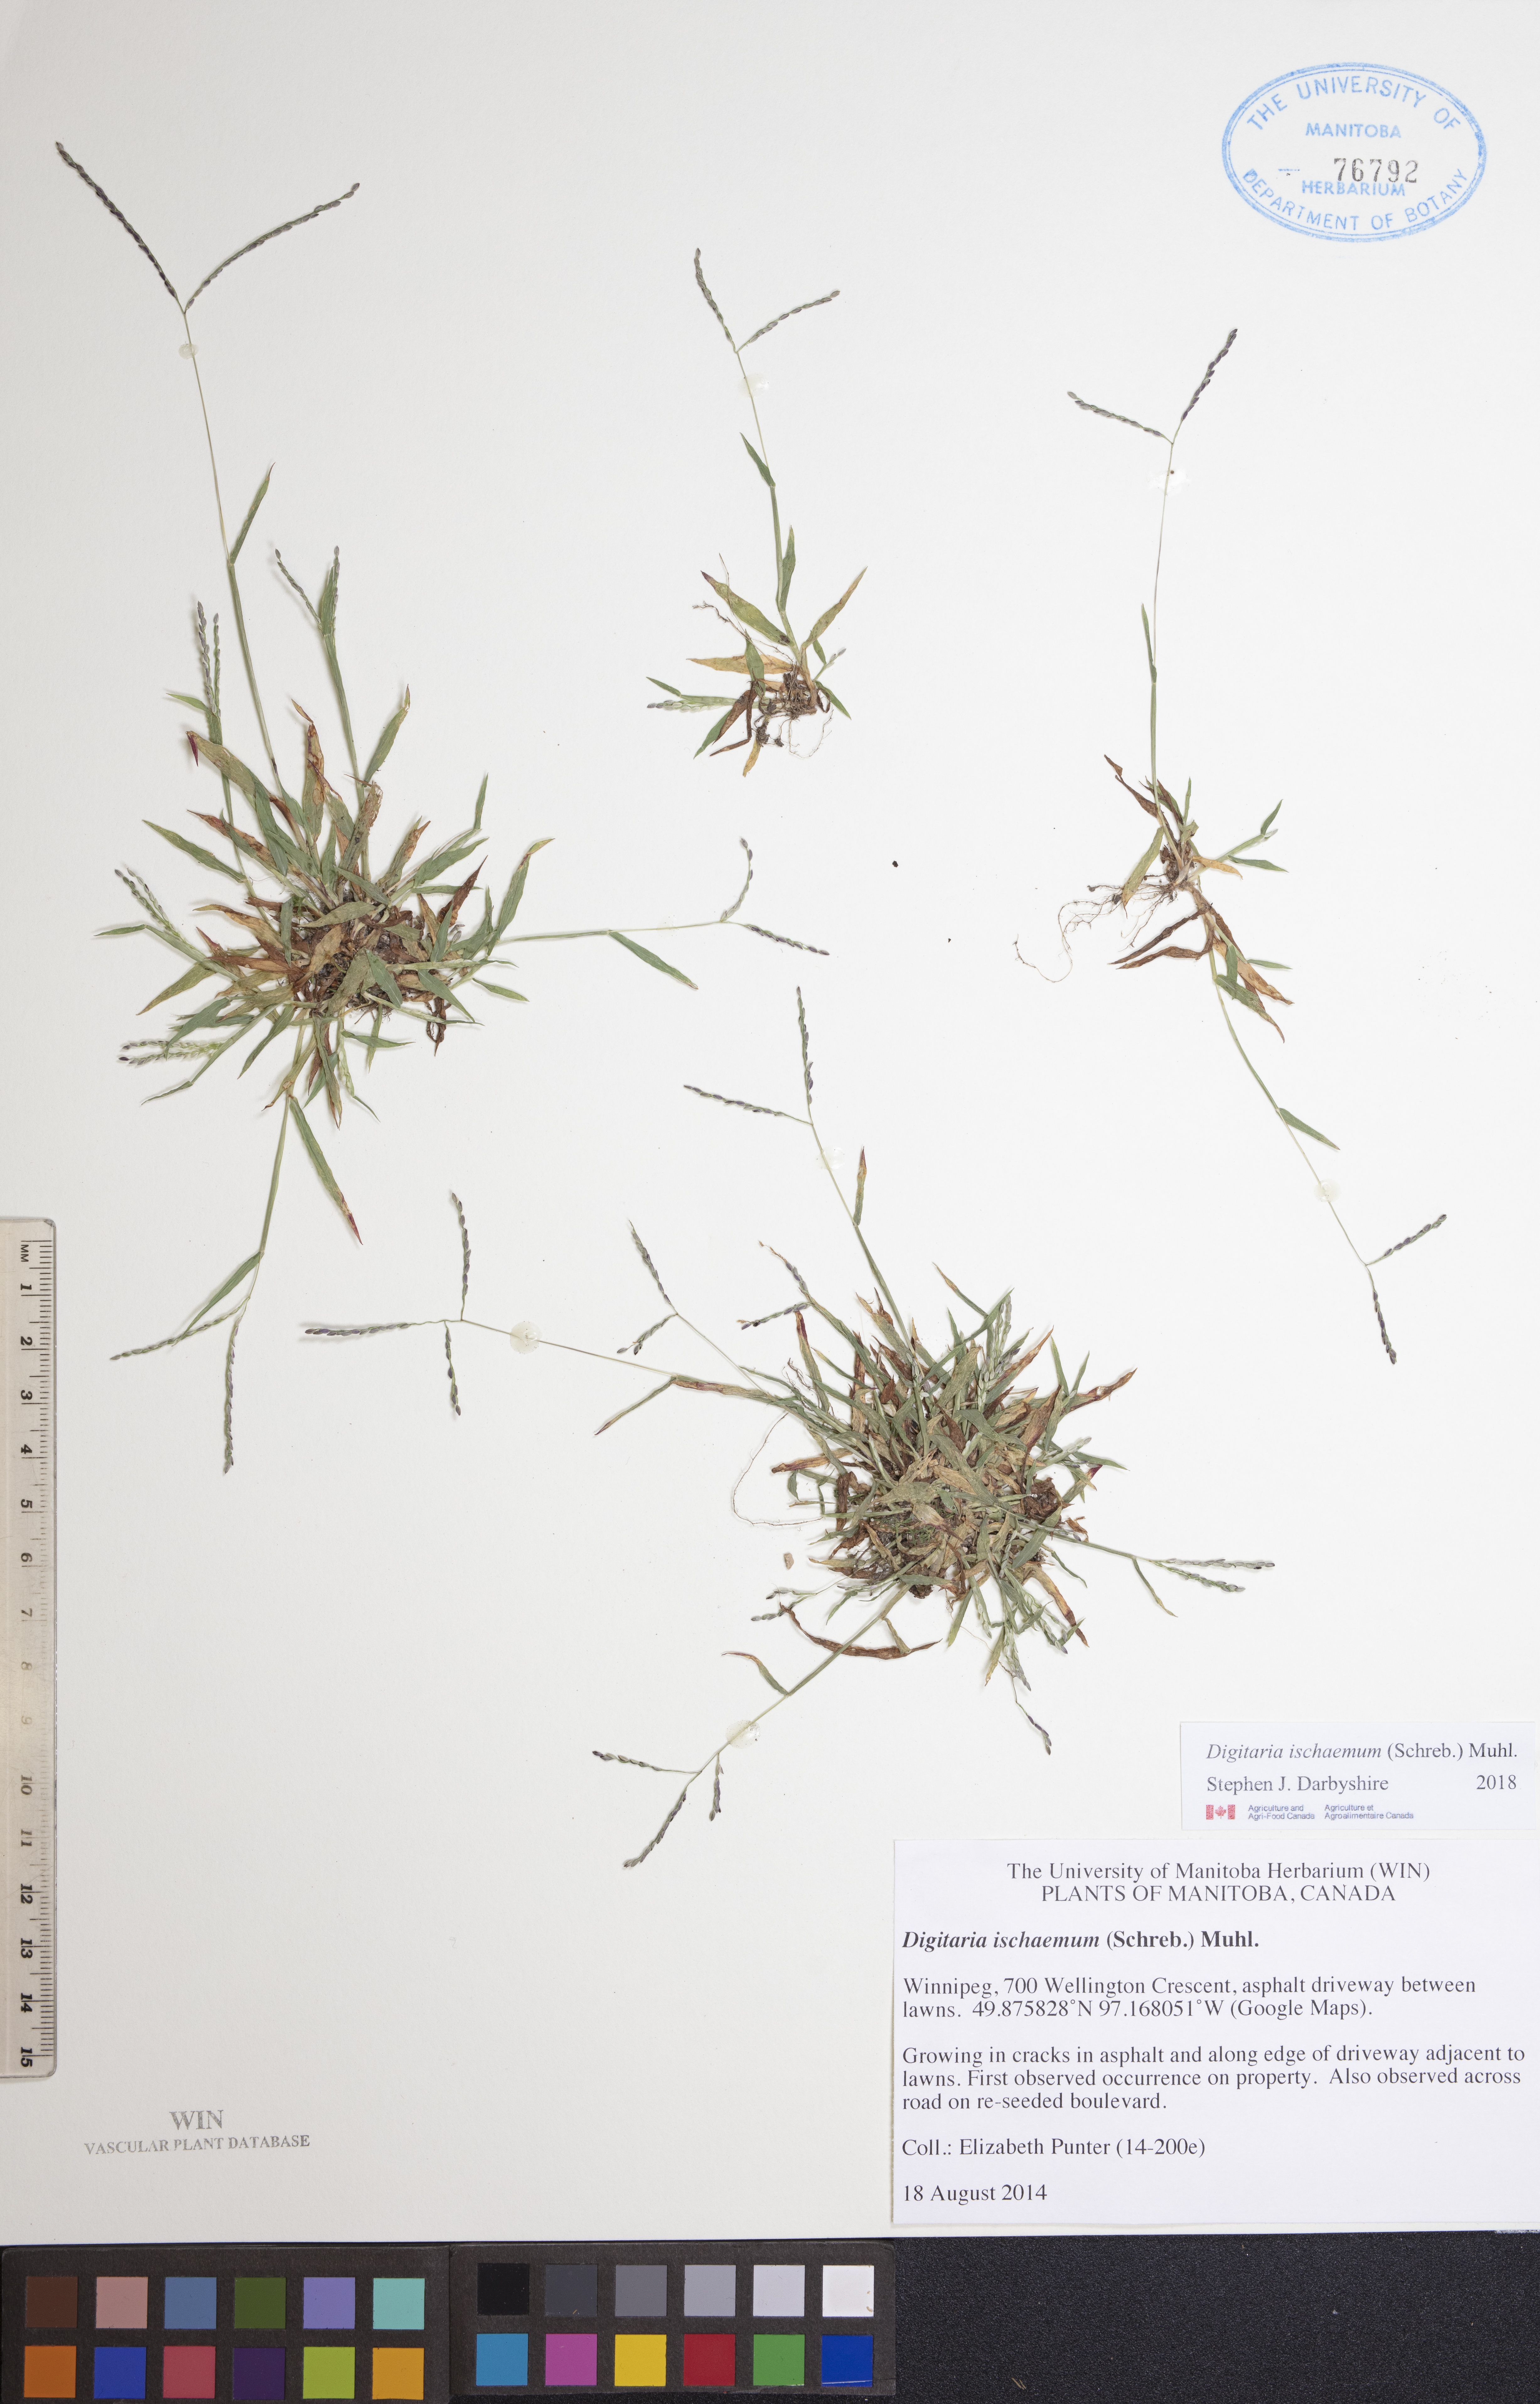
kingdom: Plantae
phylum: Tracheophyta
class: Liliopsida
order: Poales
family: Poaceae
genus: Digitaria
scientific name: Digitaria ischaemum
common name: Smooth crabgrass
